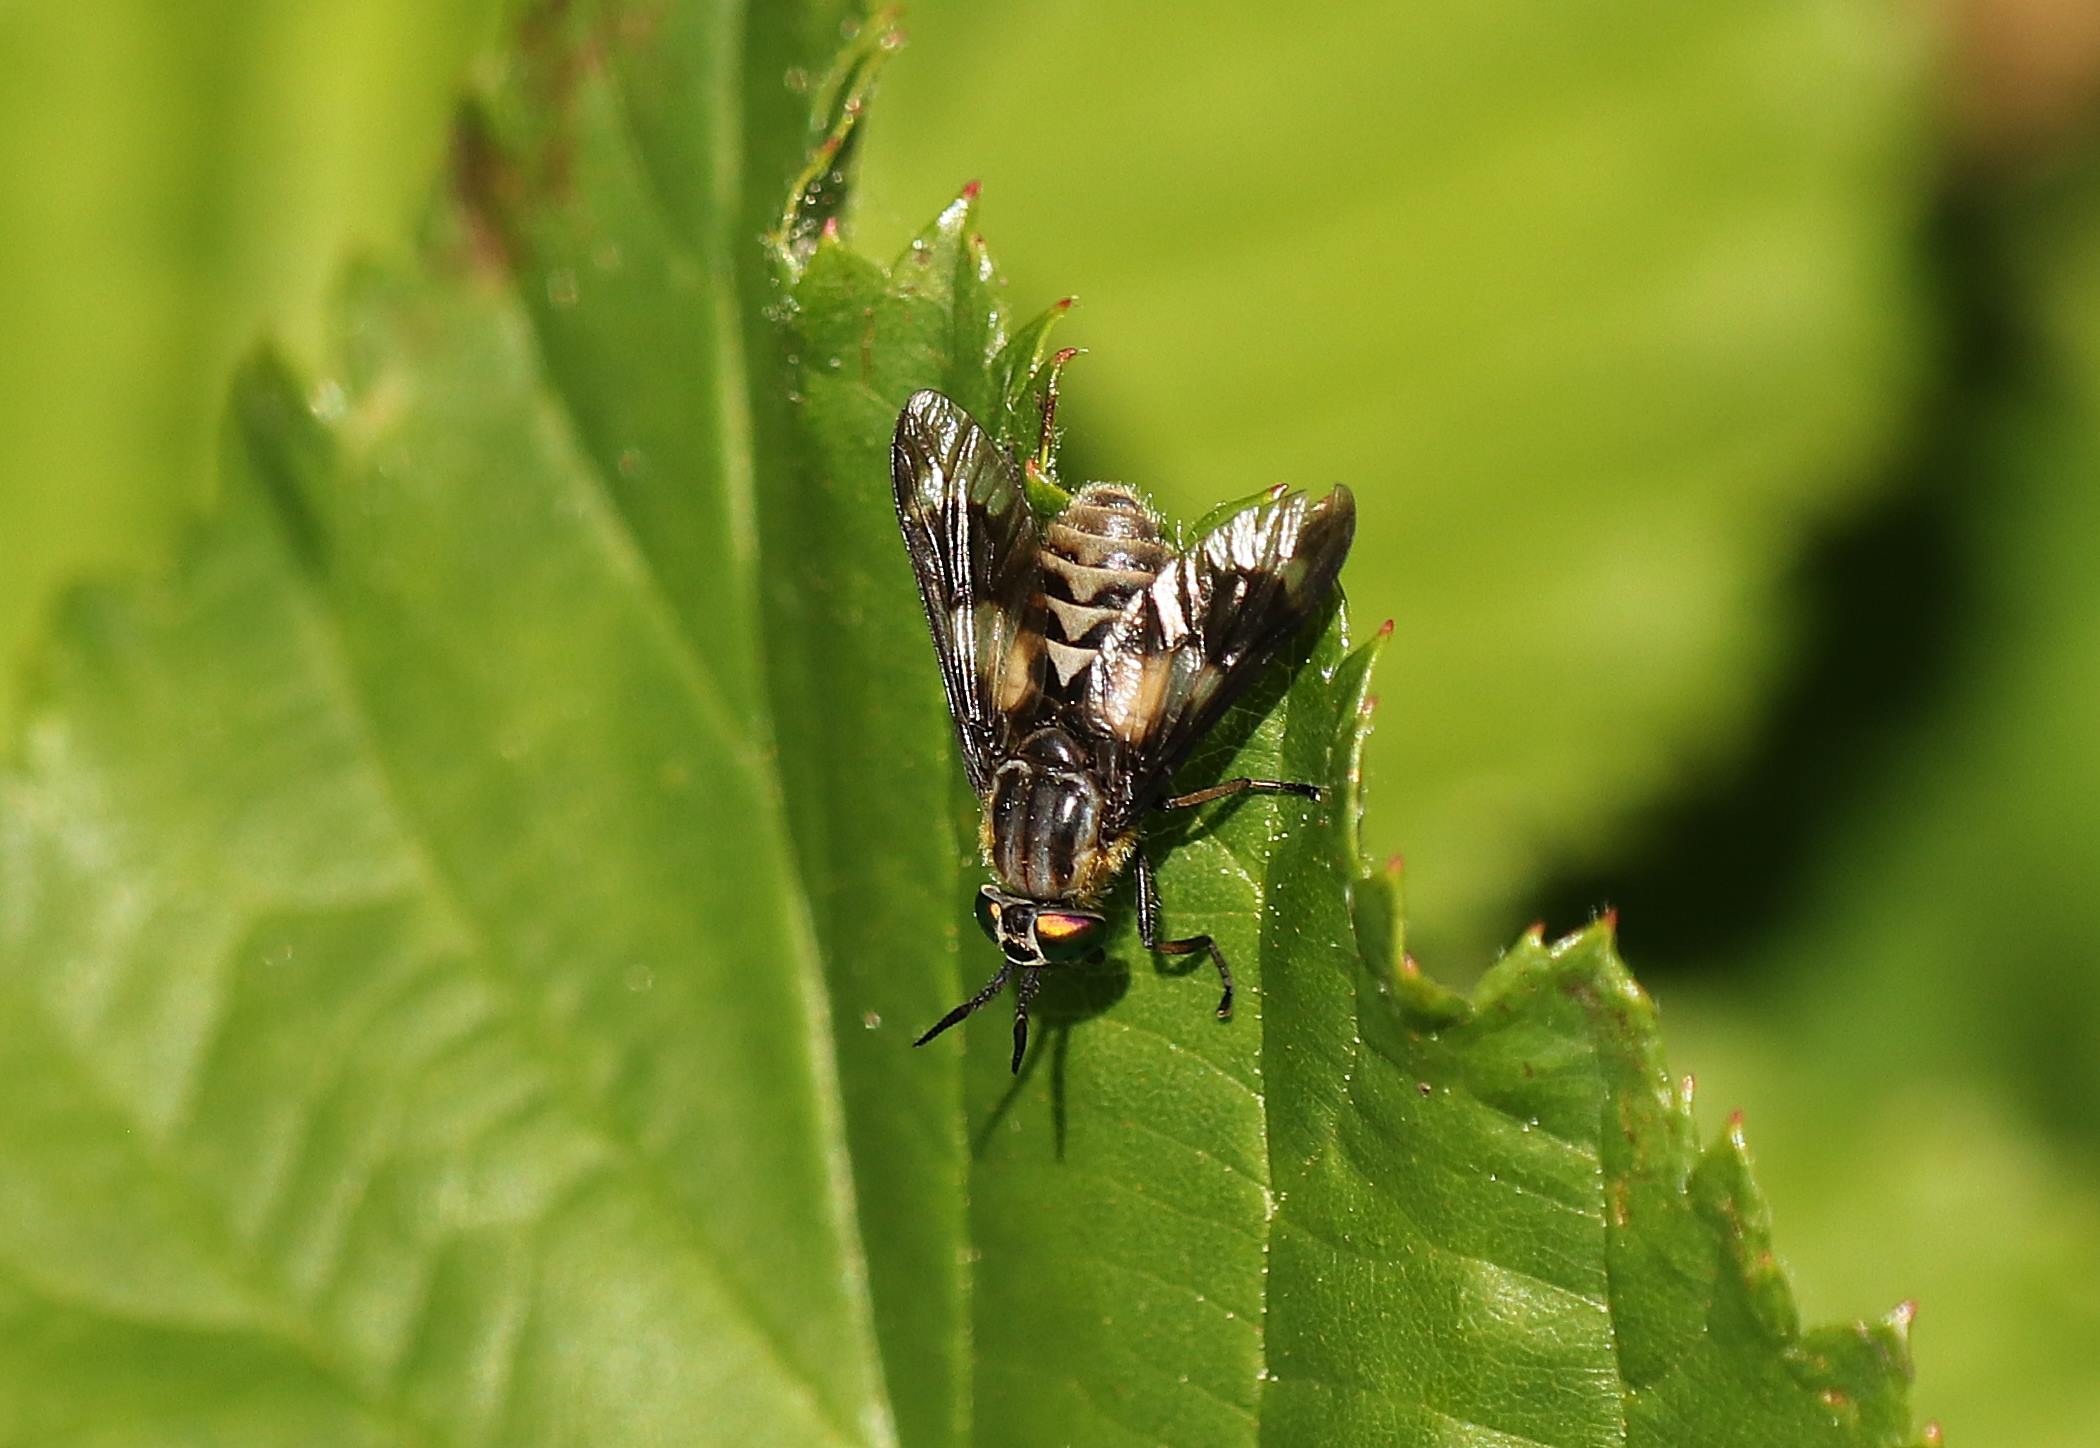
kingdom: Animalia
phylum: Arthropoda
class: Insecta
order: Diptera
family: Tabanidae
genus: Chrysops
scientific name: Chrysops relictus
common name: Guldklæg
